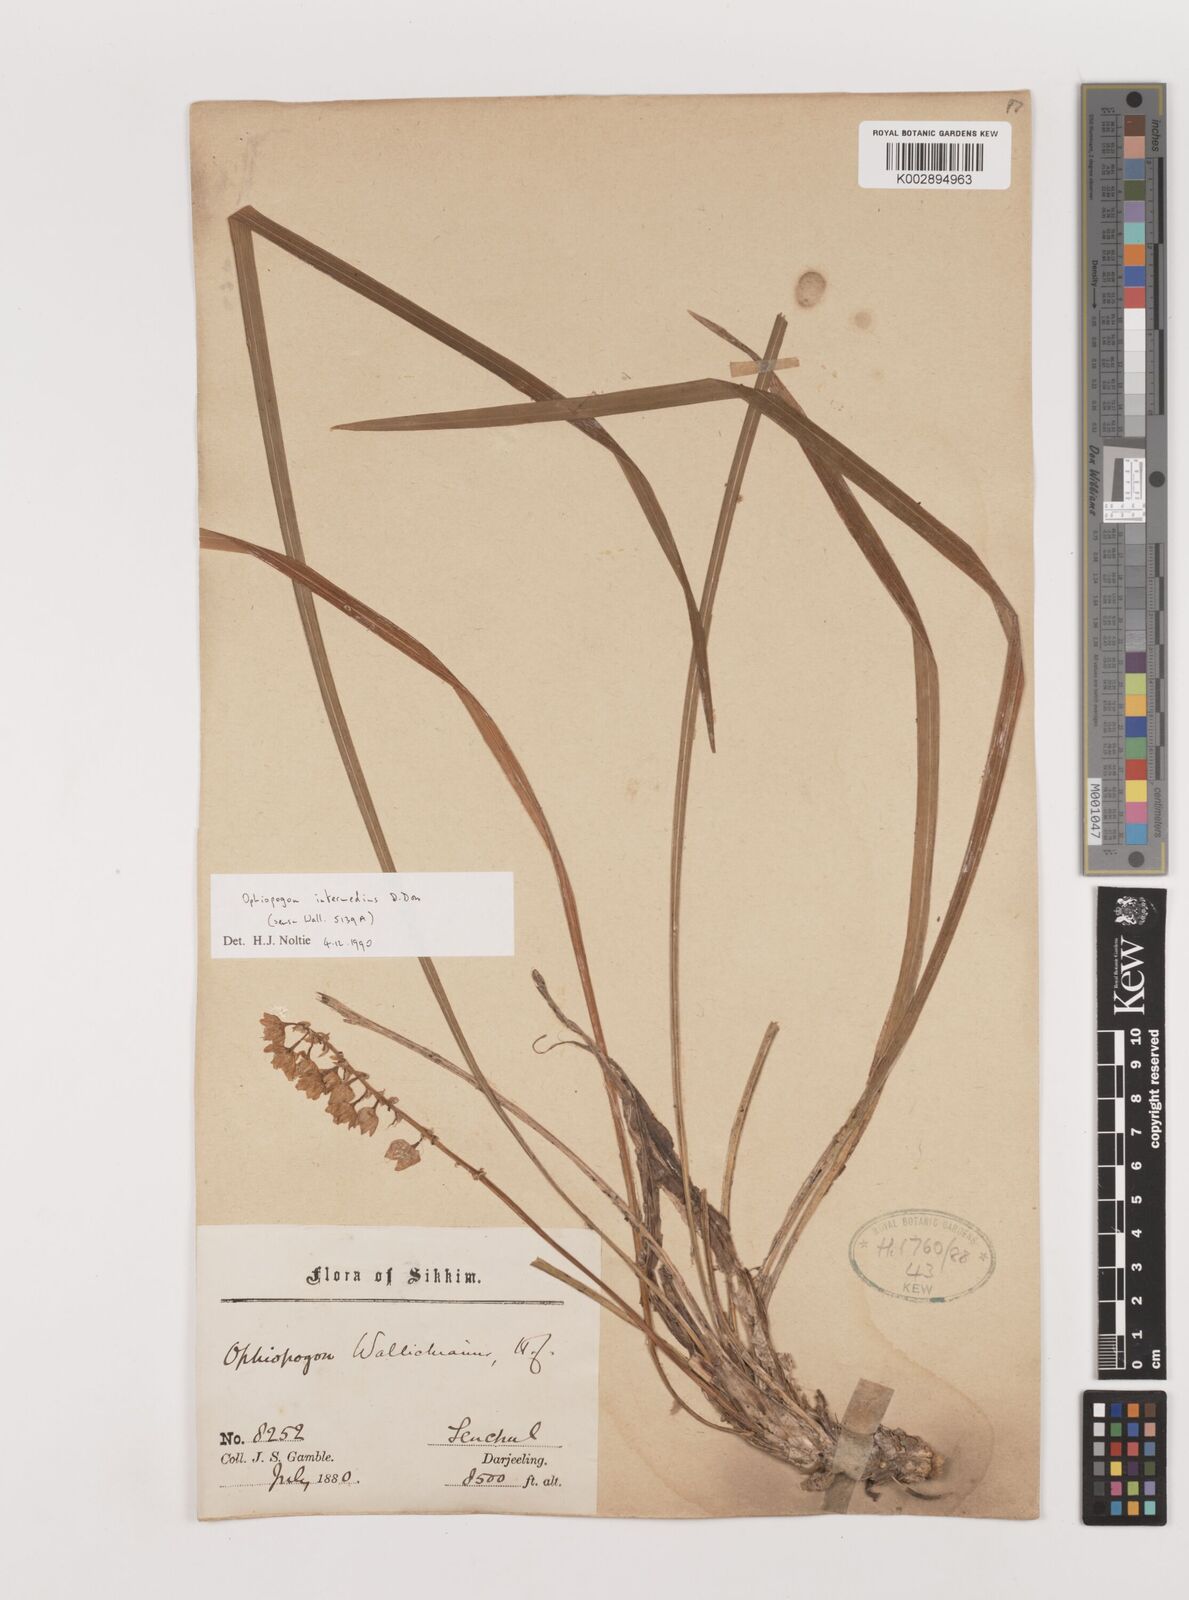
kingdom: Plantae
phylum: Tracheophyta
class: Liliopsida
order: Asparagales
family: Asparagaceae
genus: Ophiopogon
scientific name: Ophiopogon intermedius
